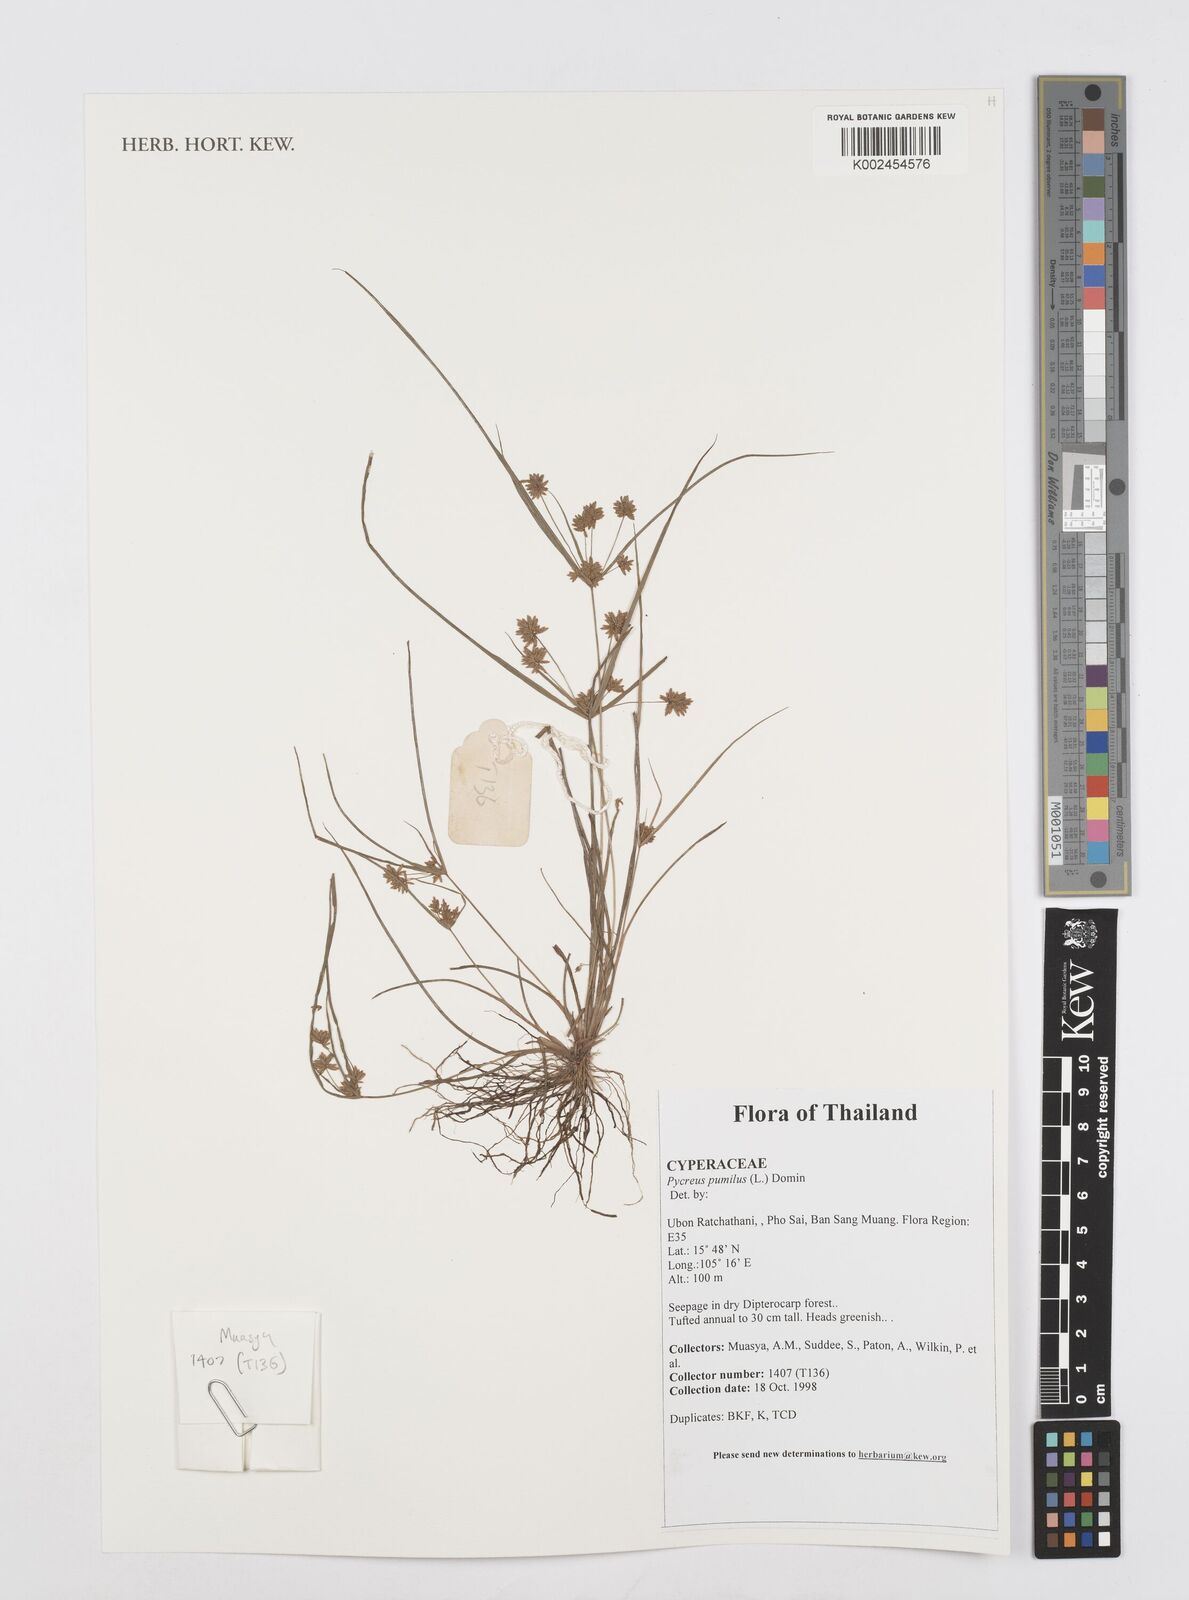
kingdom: Plantae
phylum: Tracheophyta
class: Liliopsida
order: Poales
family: Cyperaceae
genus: Cyperus
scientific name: Cyperus polystachyos
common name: Bunchy flat sedge
